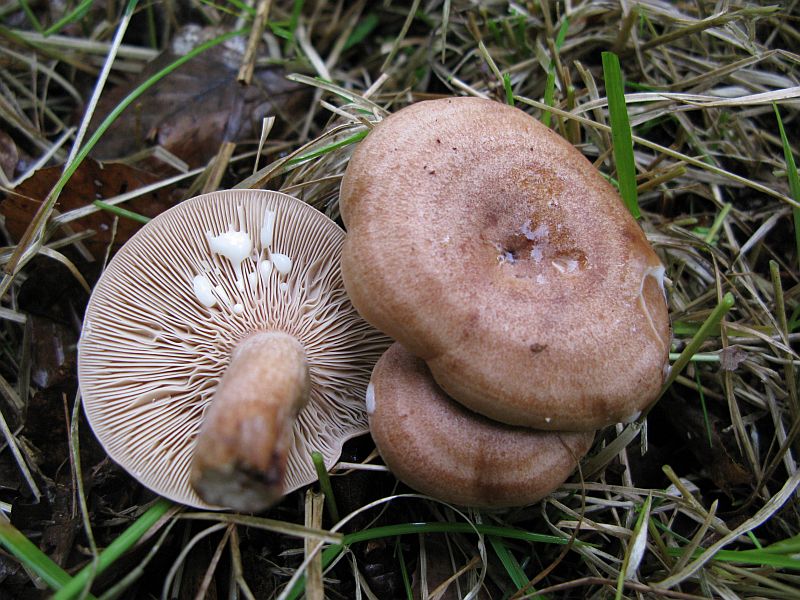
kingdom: Fungi
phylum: Basidiomycota
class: Agaricomycetes
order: Russulales
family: Russulaceae
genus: Lactarius
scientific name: Lactarius quietus
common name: ege-mælkehat
